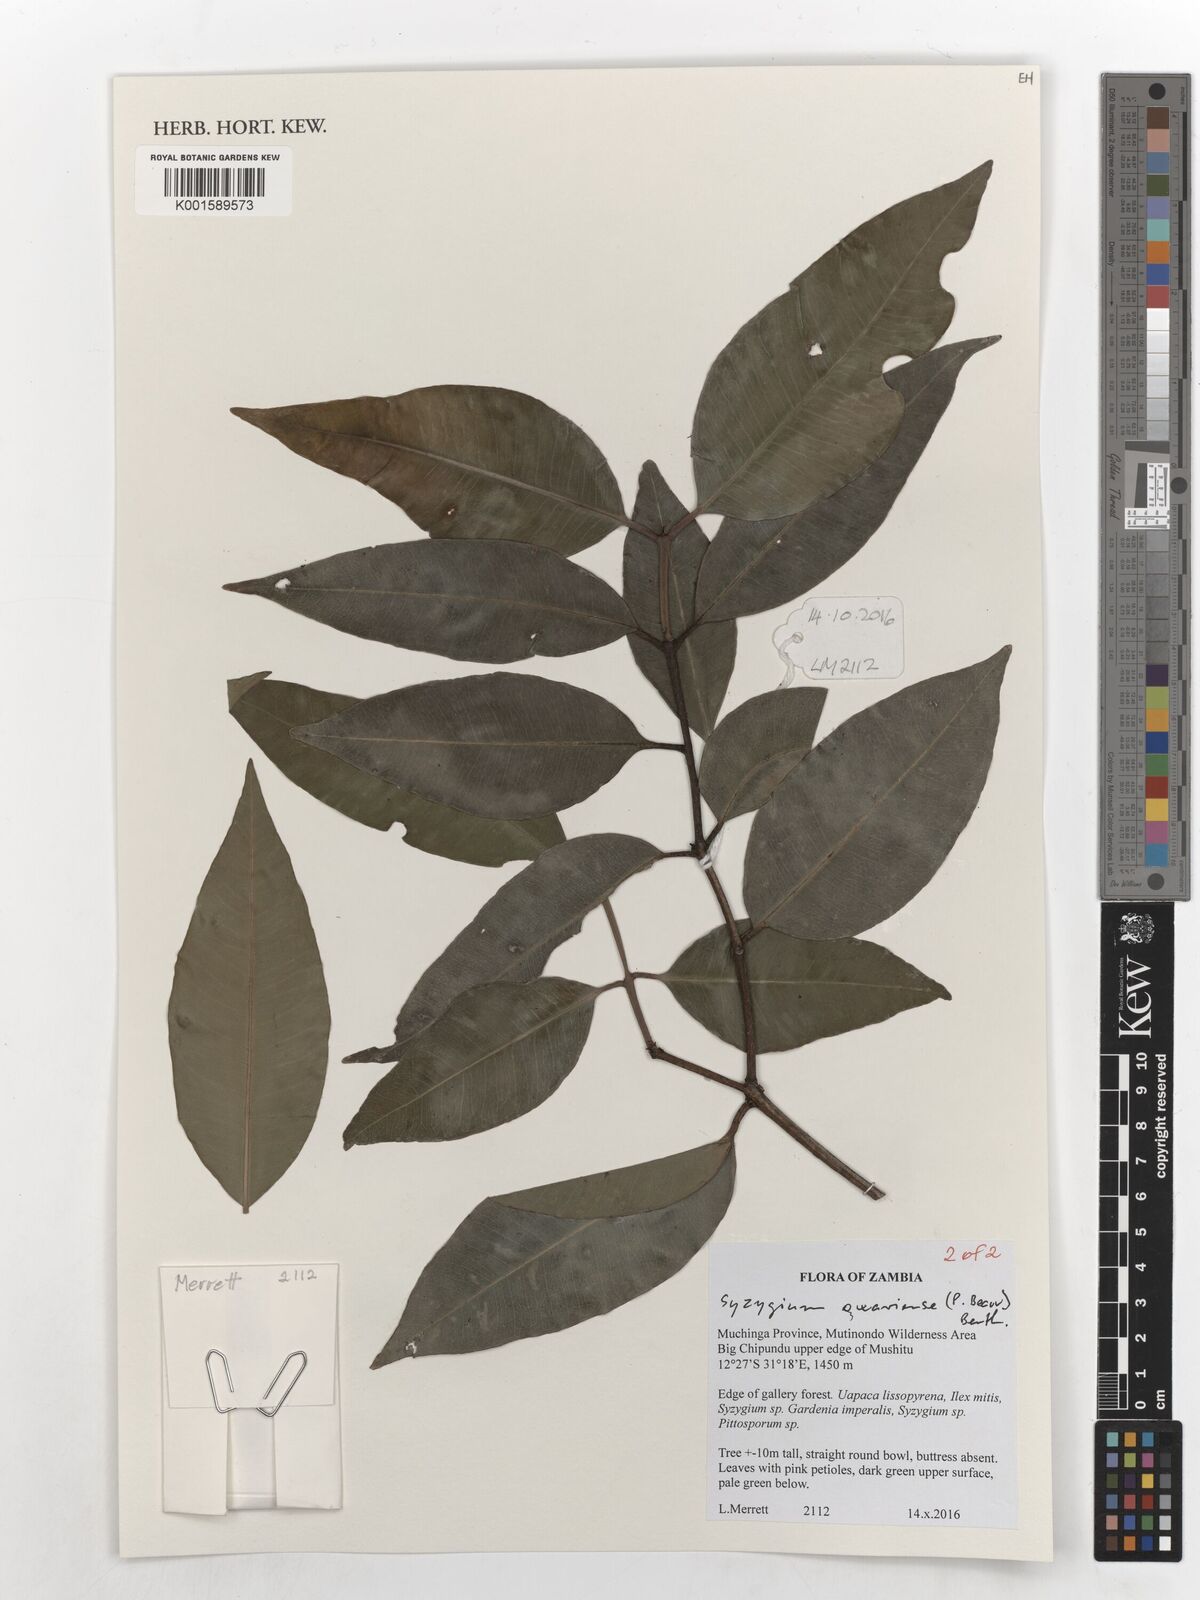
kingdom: Plantae
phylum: Tracheophyta
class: Magnoliopsida
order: Myrtales
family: Myrtaceae
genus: Syzygium
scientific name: Syzygium owariense
